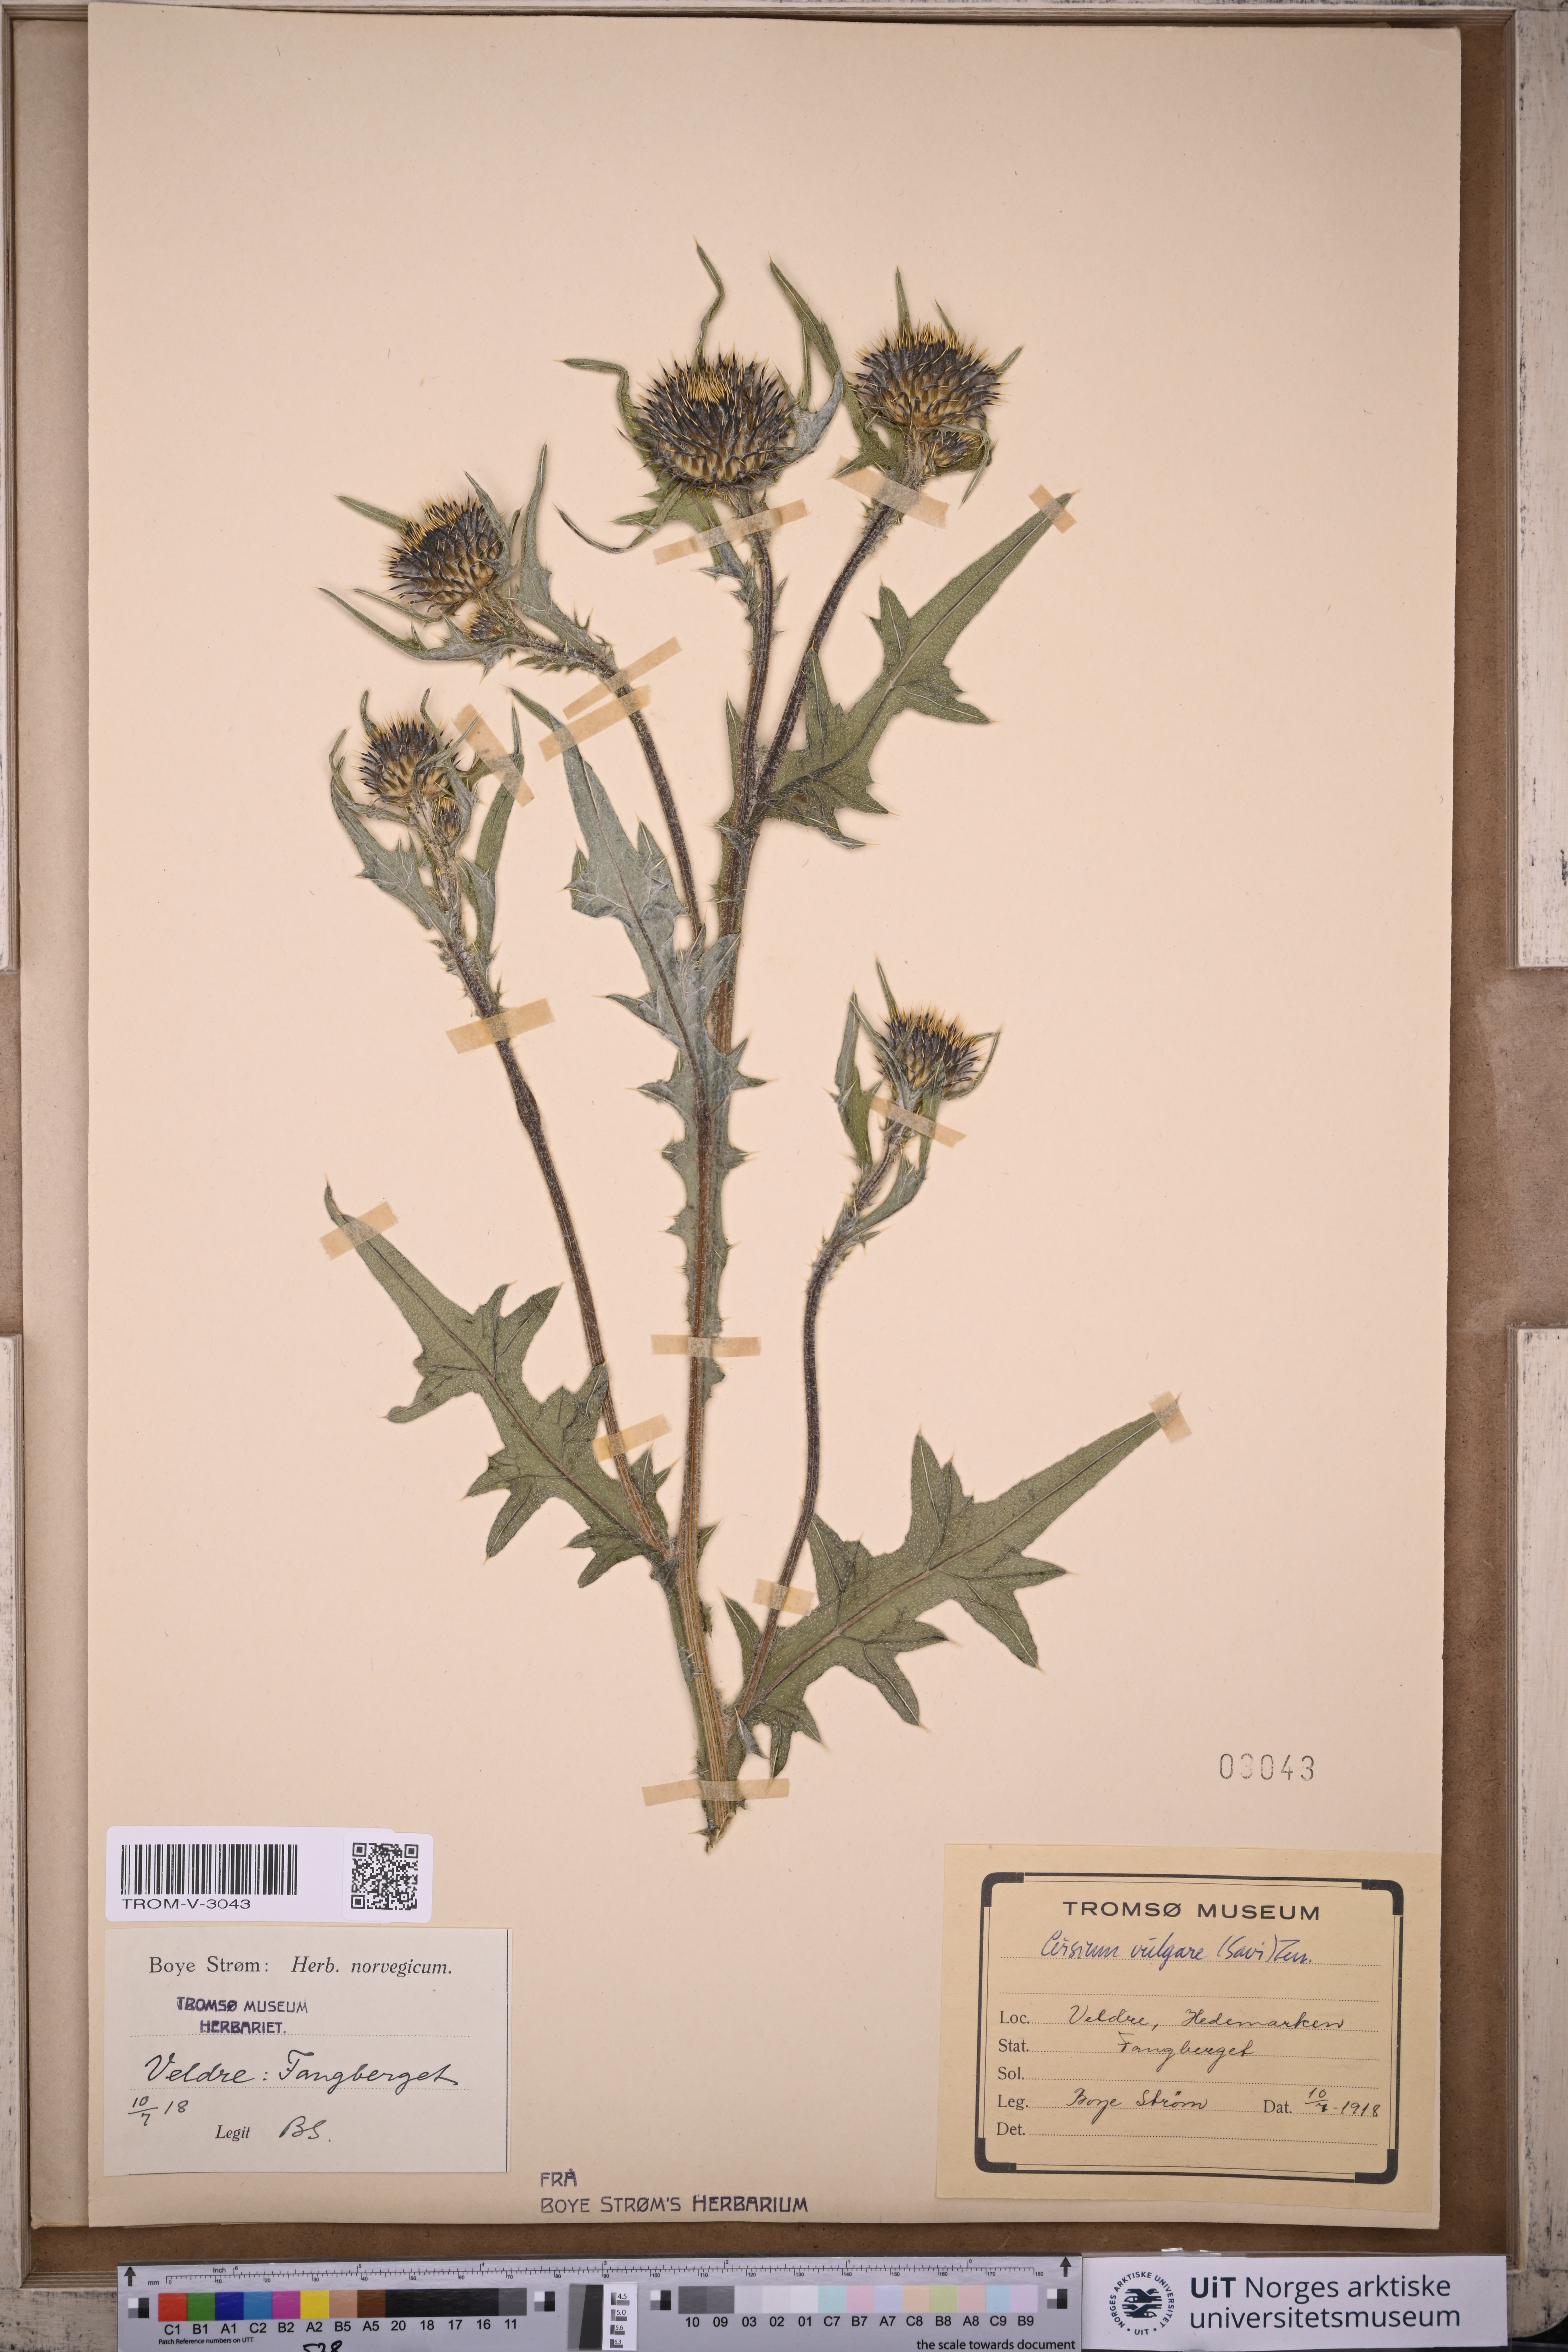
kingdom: Plantae
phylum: Tracheophyta
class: Magnoliopsida
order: Asterales
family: Asteraceae
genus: Cirsium
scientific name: Cirsium vulgare
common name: Bull thistle
